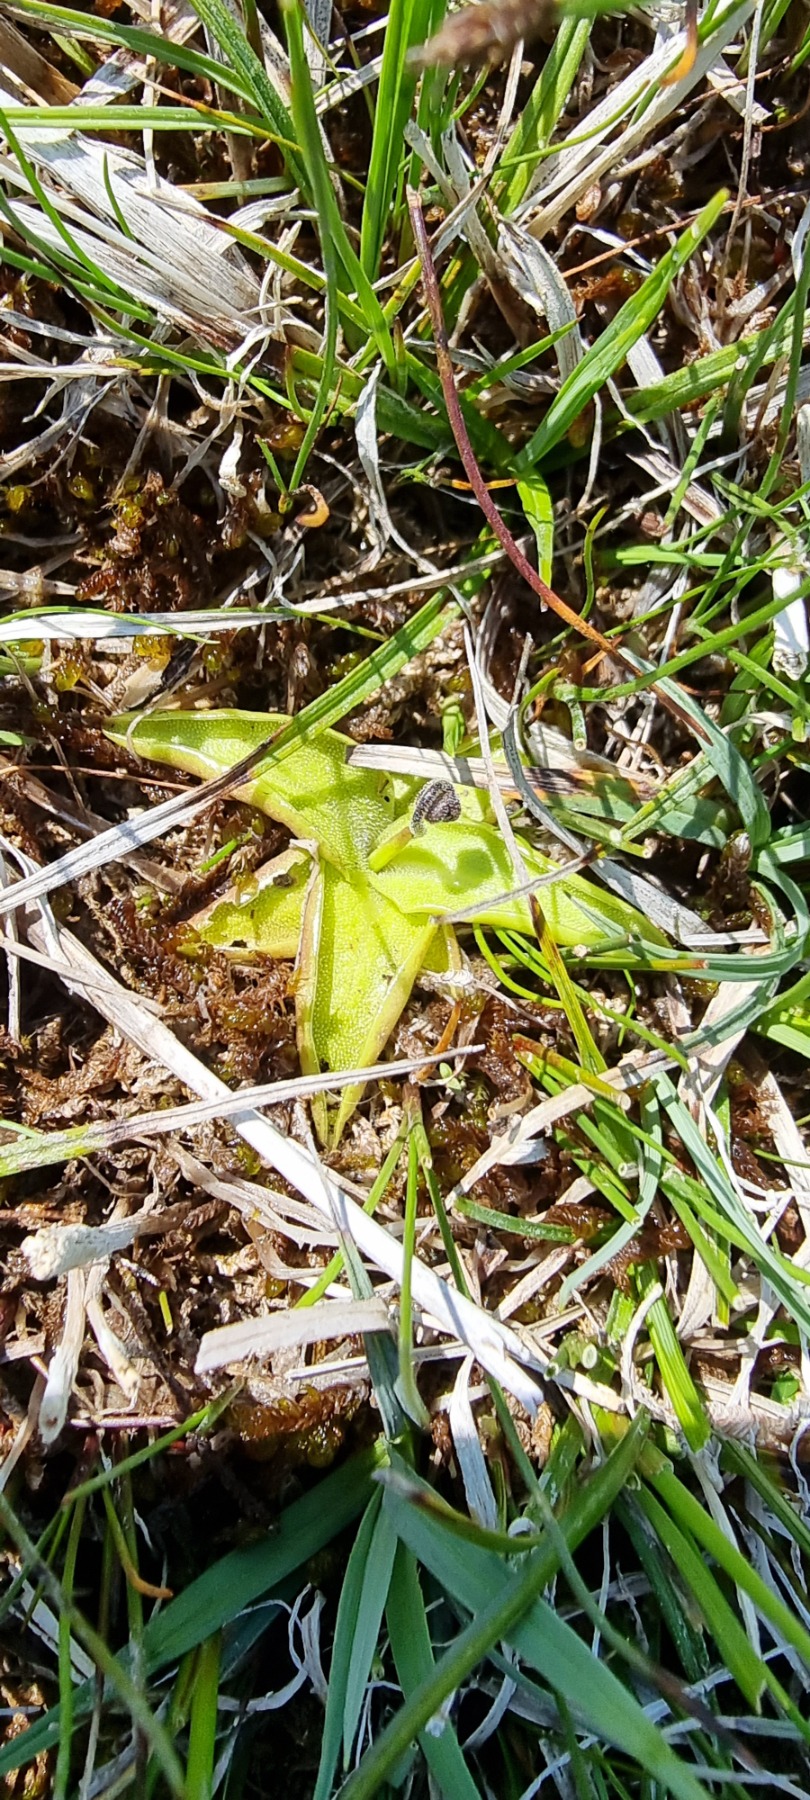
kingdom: Plantae
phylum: Tracheophyta
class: Magnoliopsida
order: Lamiales
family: Lentibulariaceae
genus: Pinguicula
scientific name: Pinguicula vulgaris
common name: Vibefedt
